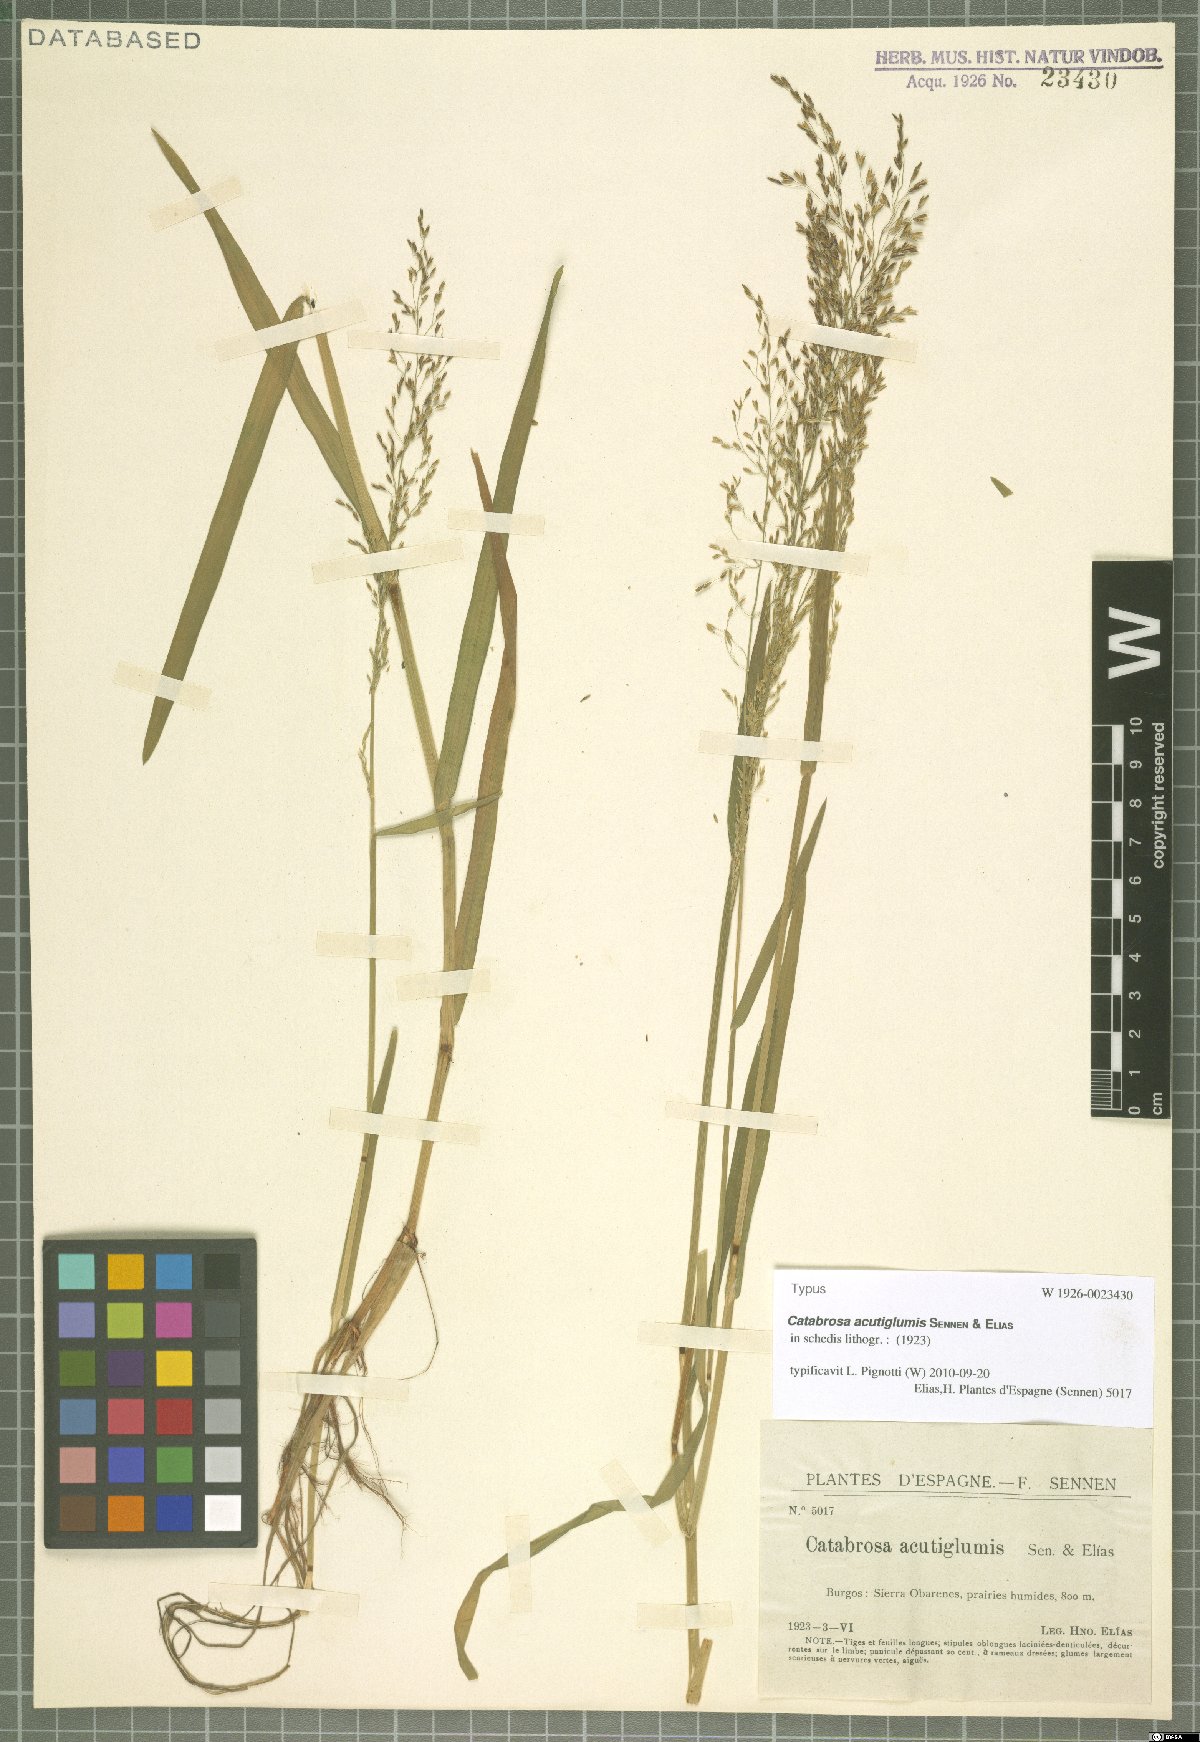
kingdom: Plantae
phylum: Tracheophyta
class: Liliopsida
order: Poales
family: Poaceae
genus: Catabrosa
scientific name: Catabrosa
